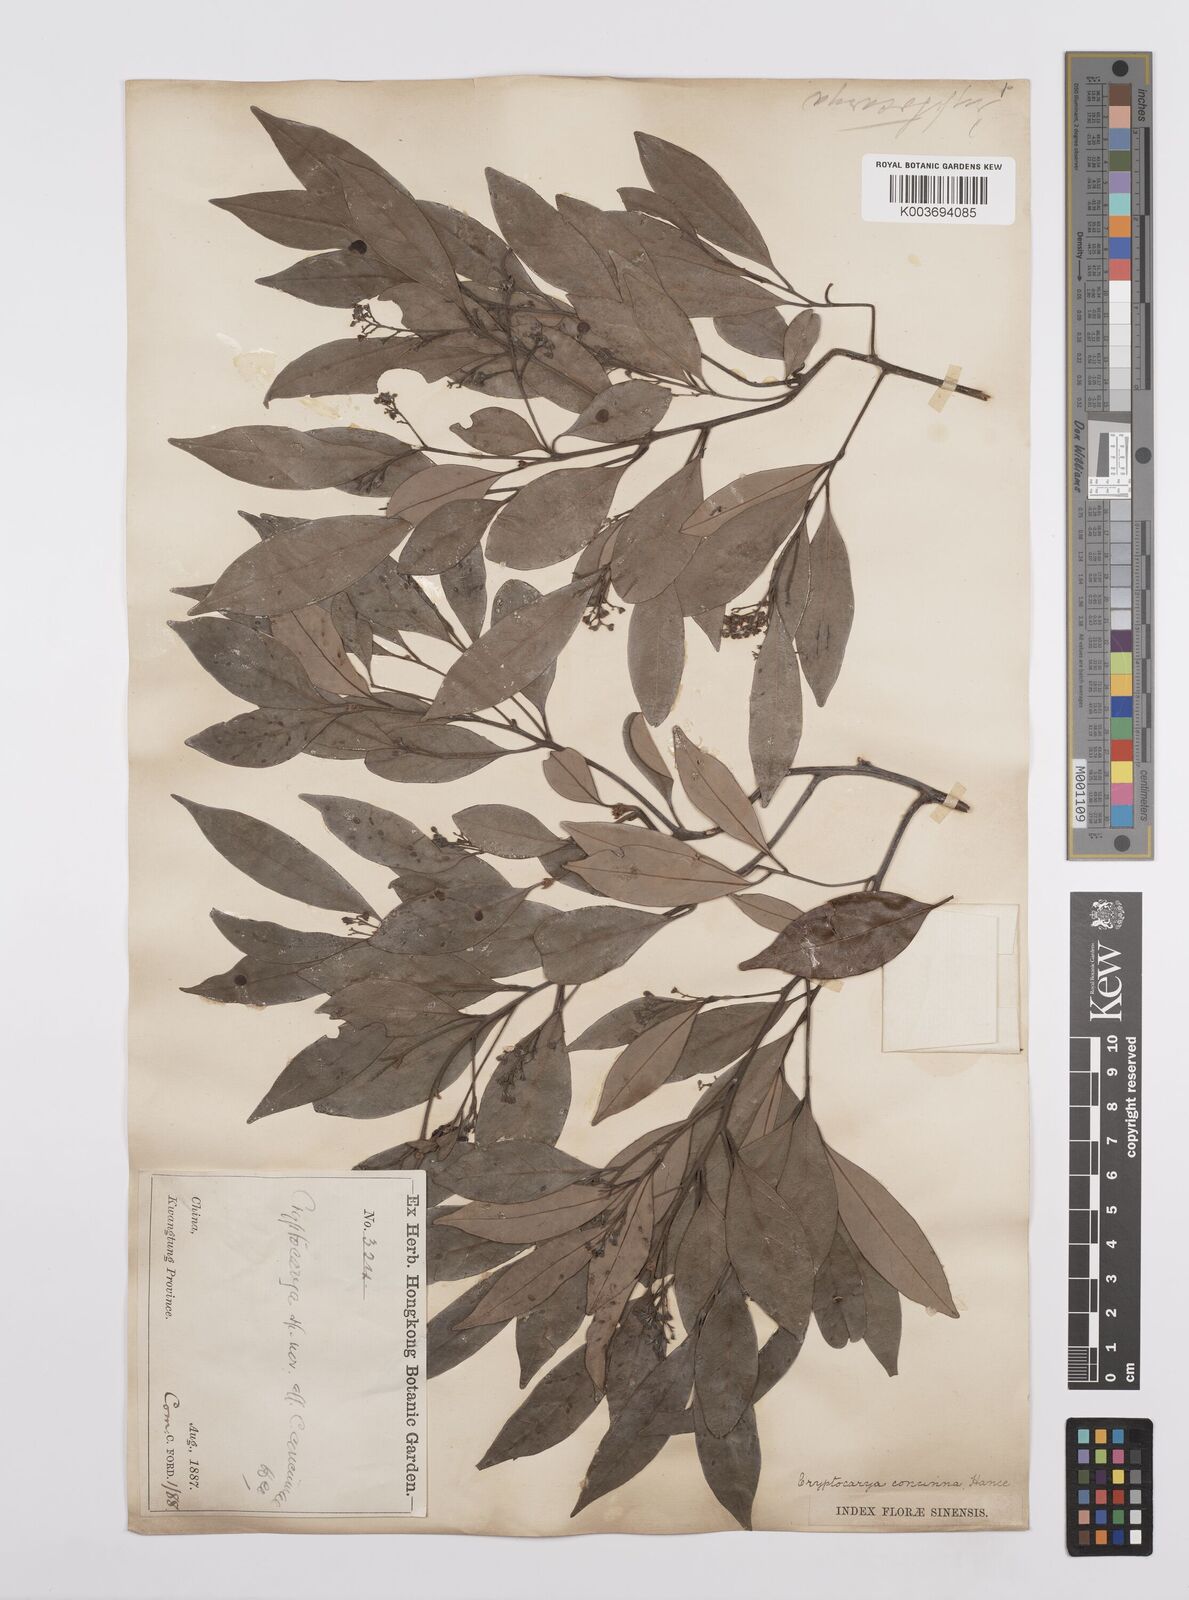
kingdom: Plantae
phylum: Tracheophyta
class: Magnoliopsida
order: Laurales
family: Lauraceae
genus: Cryptocarya
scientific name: Cryptocarya concinna
